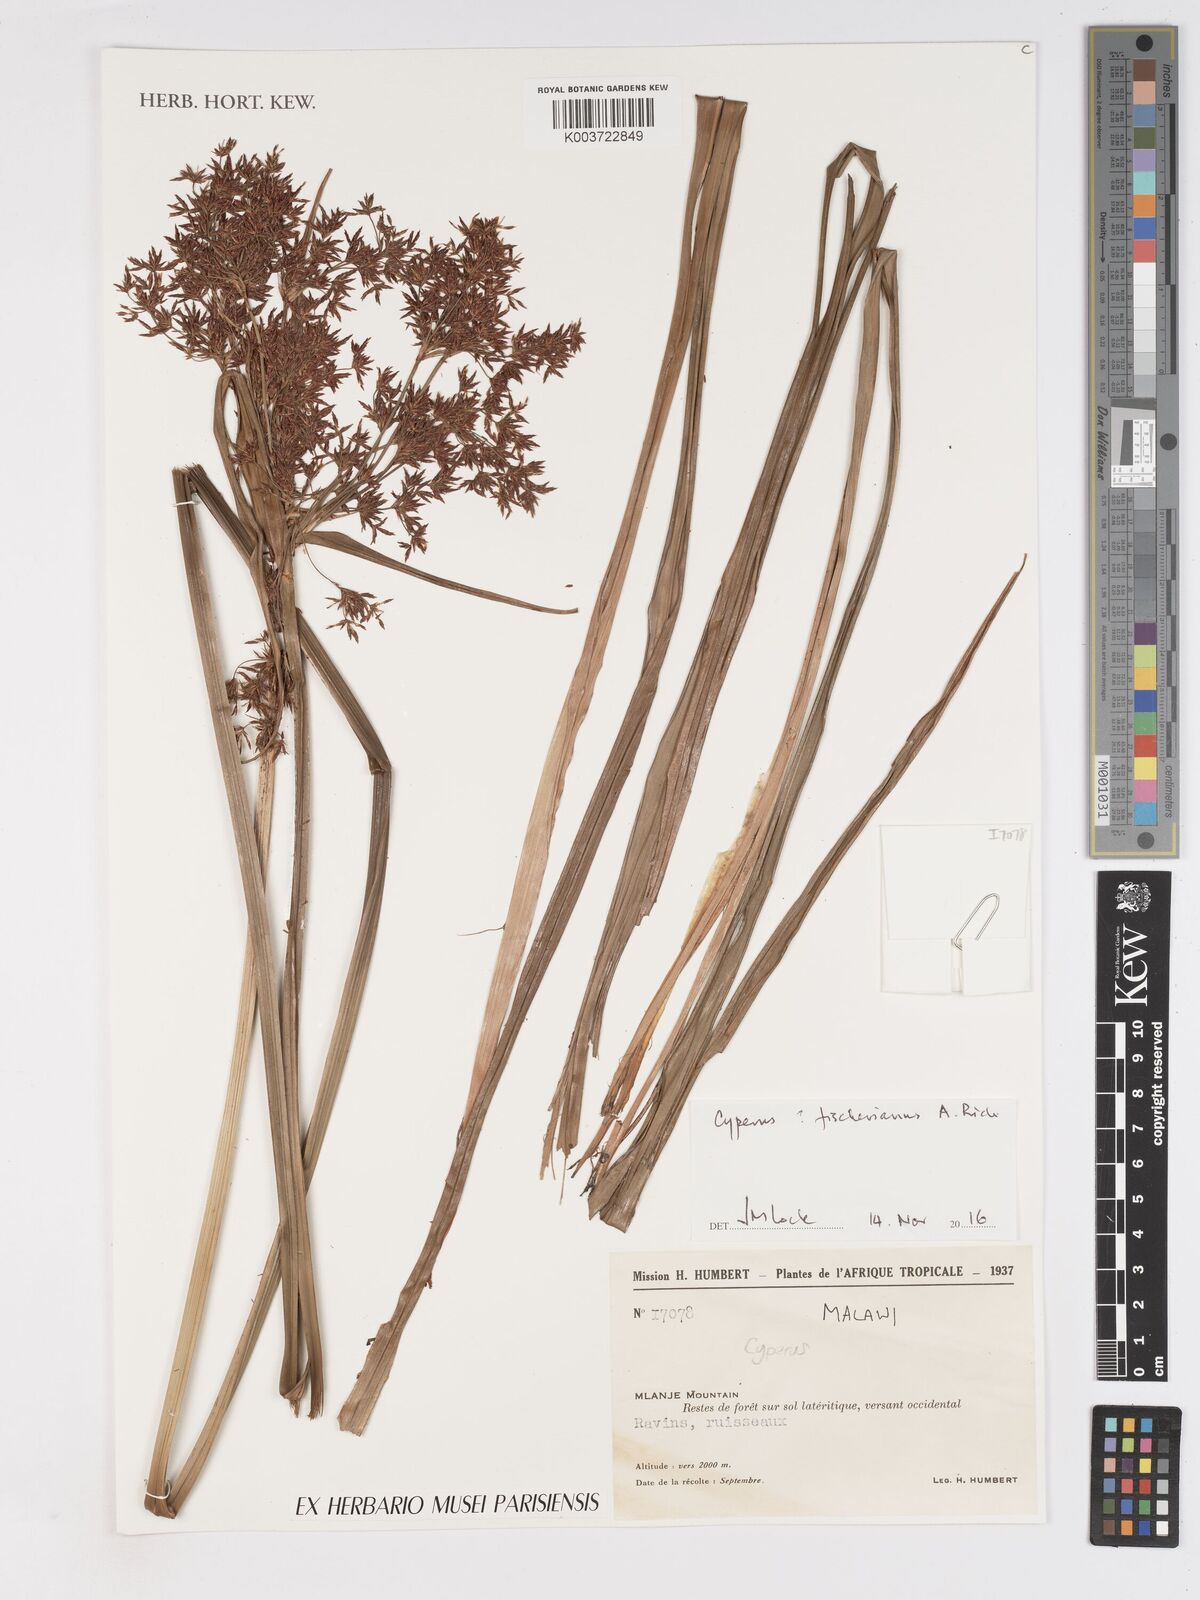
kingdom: Plantae
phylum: Tracheophyta
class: Liliopsida
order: Poales
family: Cyperaceae
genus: Cyperus
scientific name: Cyperus fischerianus
